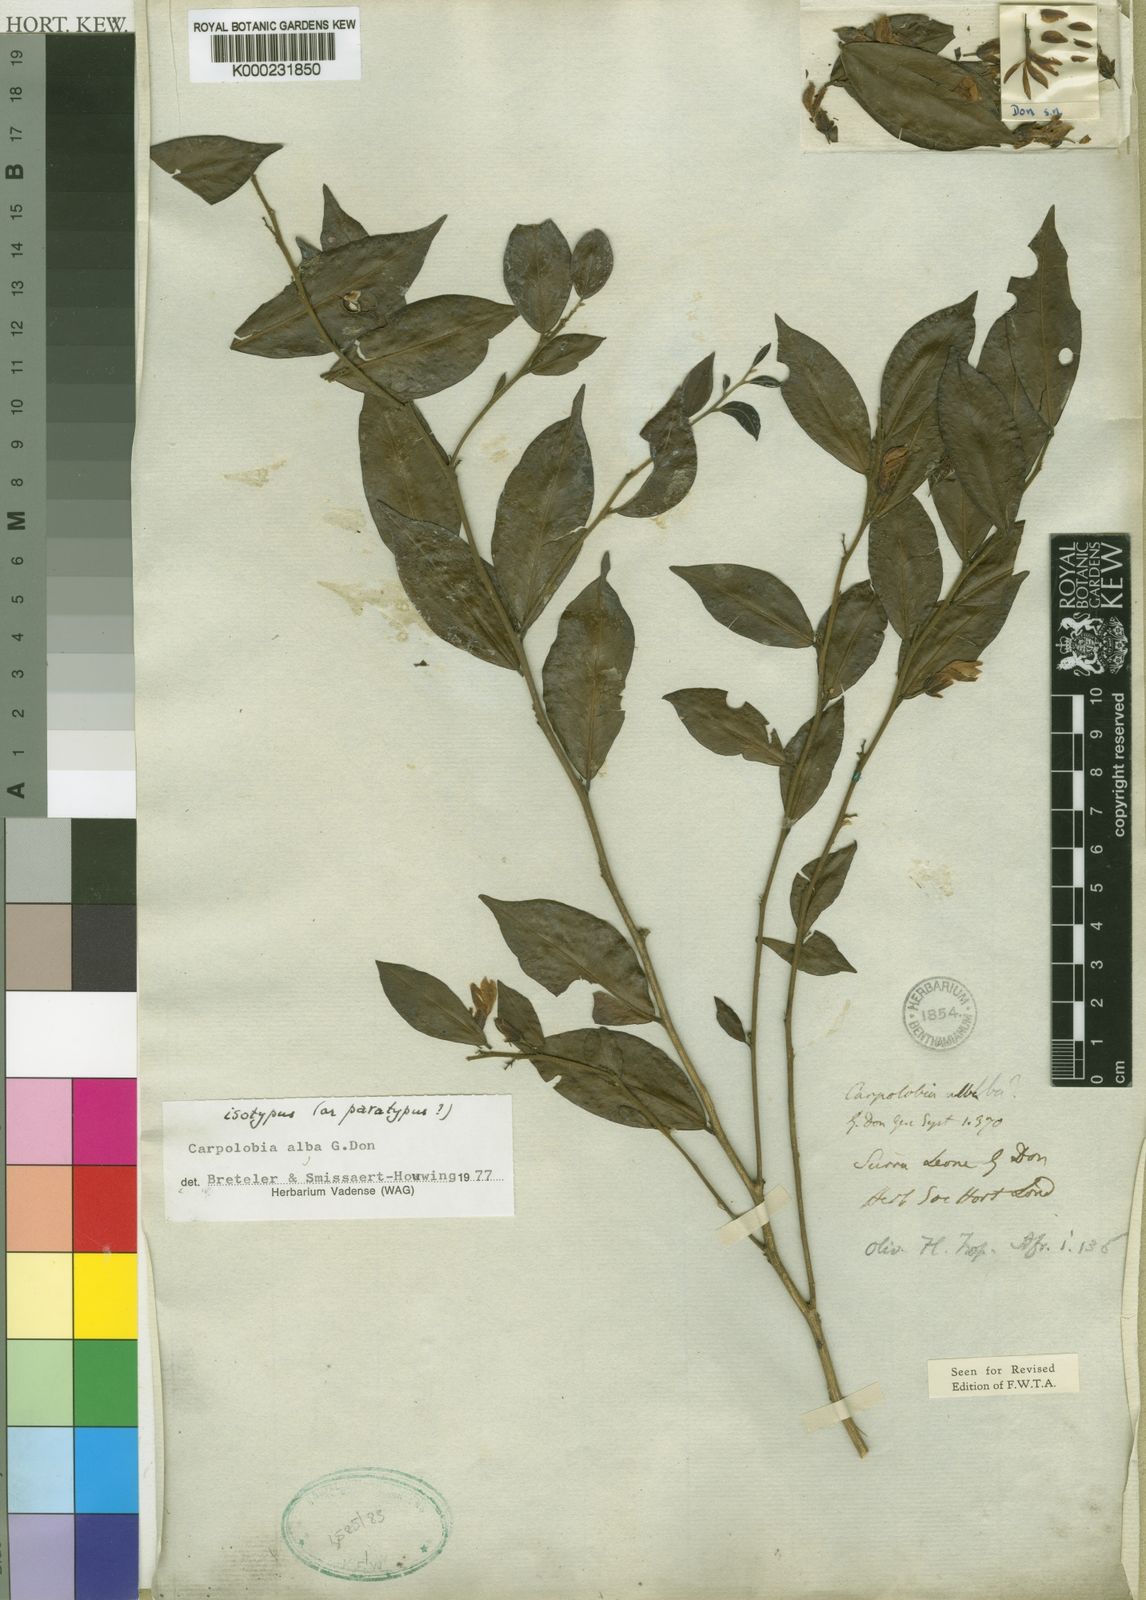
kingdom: Plantae
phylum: Tracheophyta
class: Magnoliopsida
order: Fabales
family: Polygalaceae
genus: Carpolobia
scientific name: Carpolobia alba
